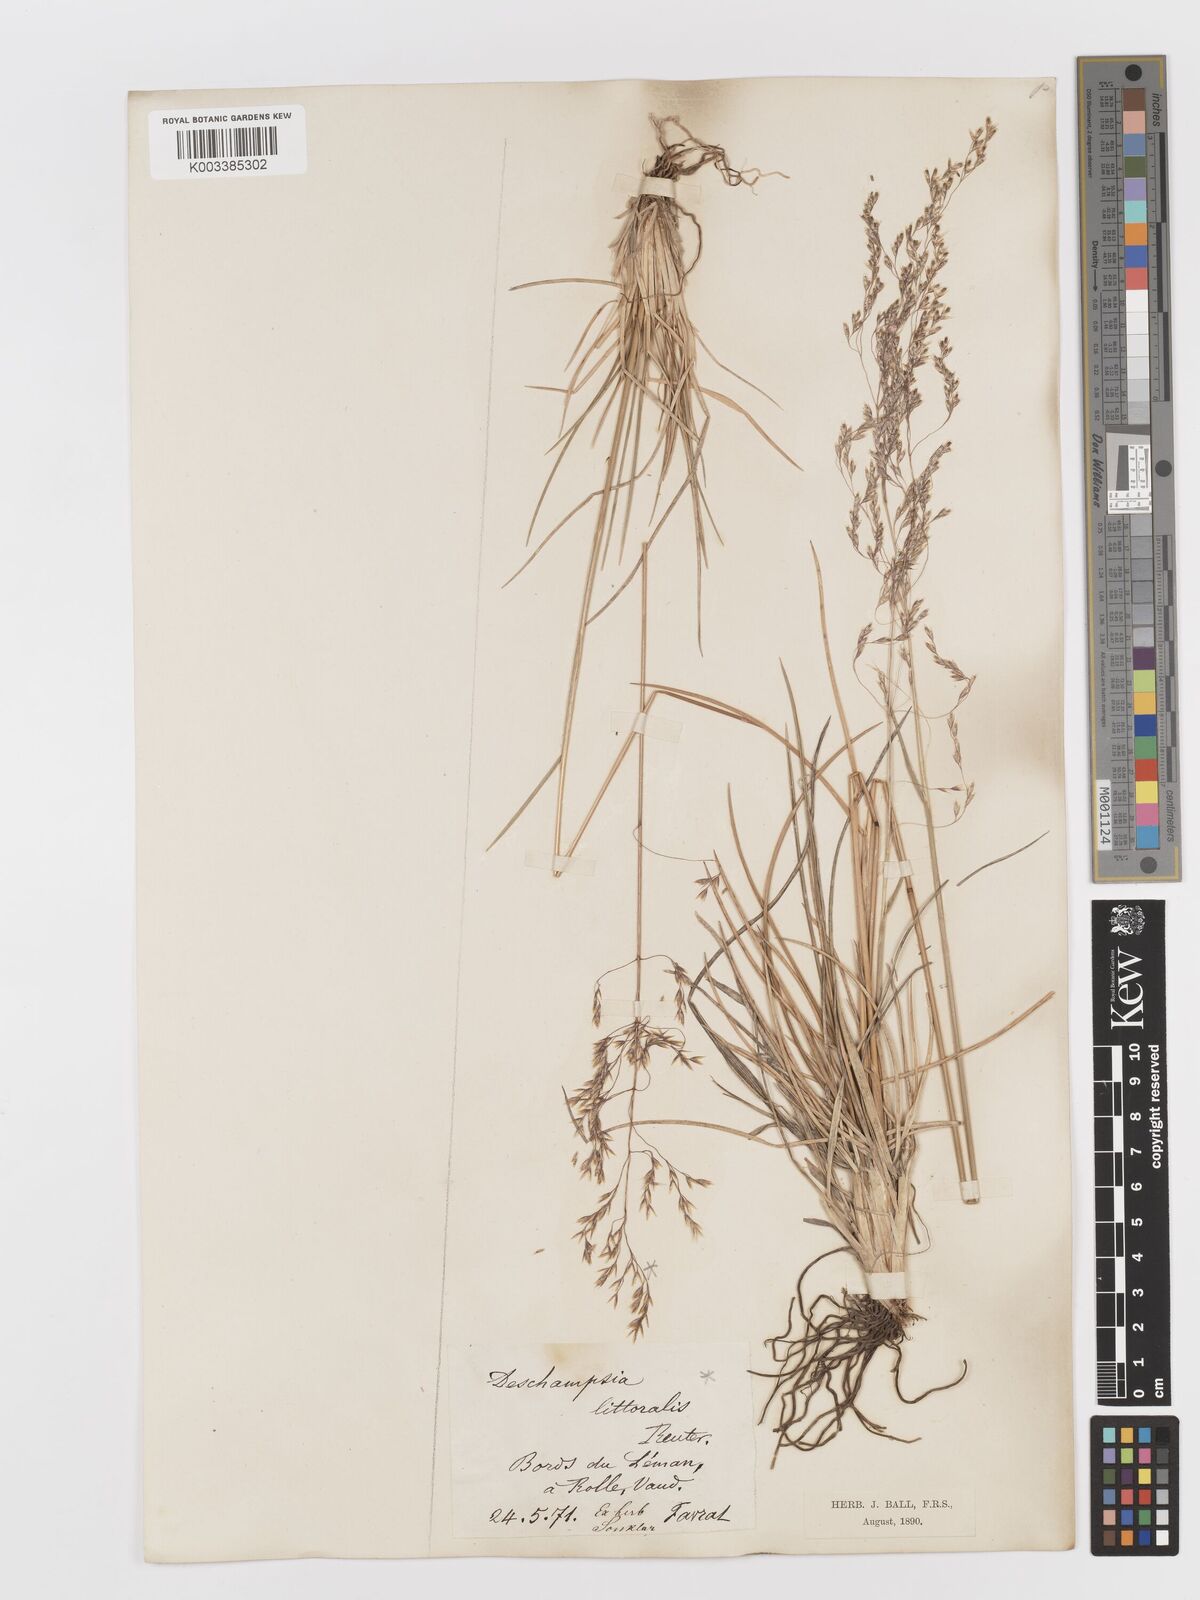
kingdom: Plantae
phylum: Tracheophyta
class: Liliopsida
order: Poales
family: Poaceae
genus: Deschampsia
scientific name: Deschampsia cespitosa
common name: Tufted hair-grass
